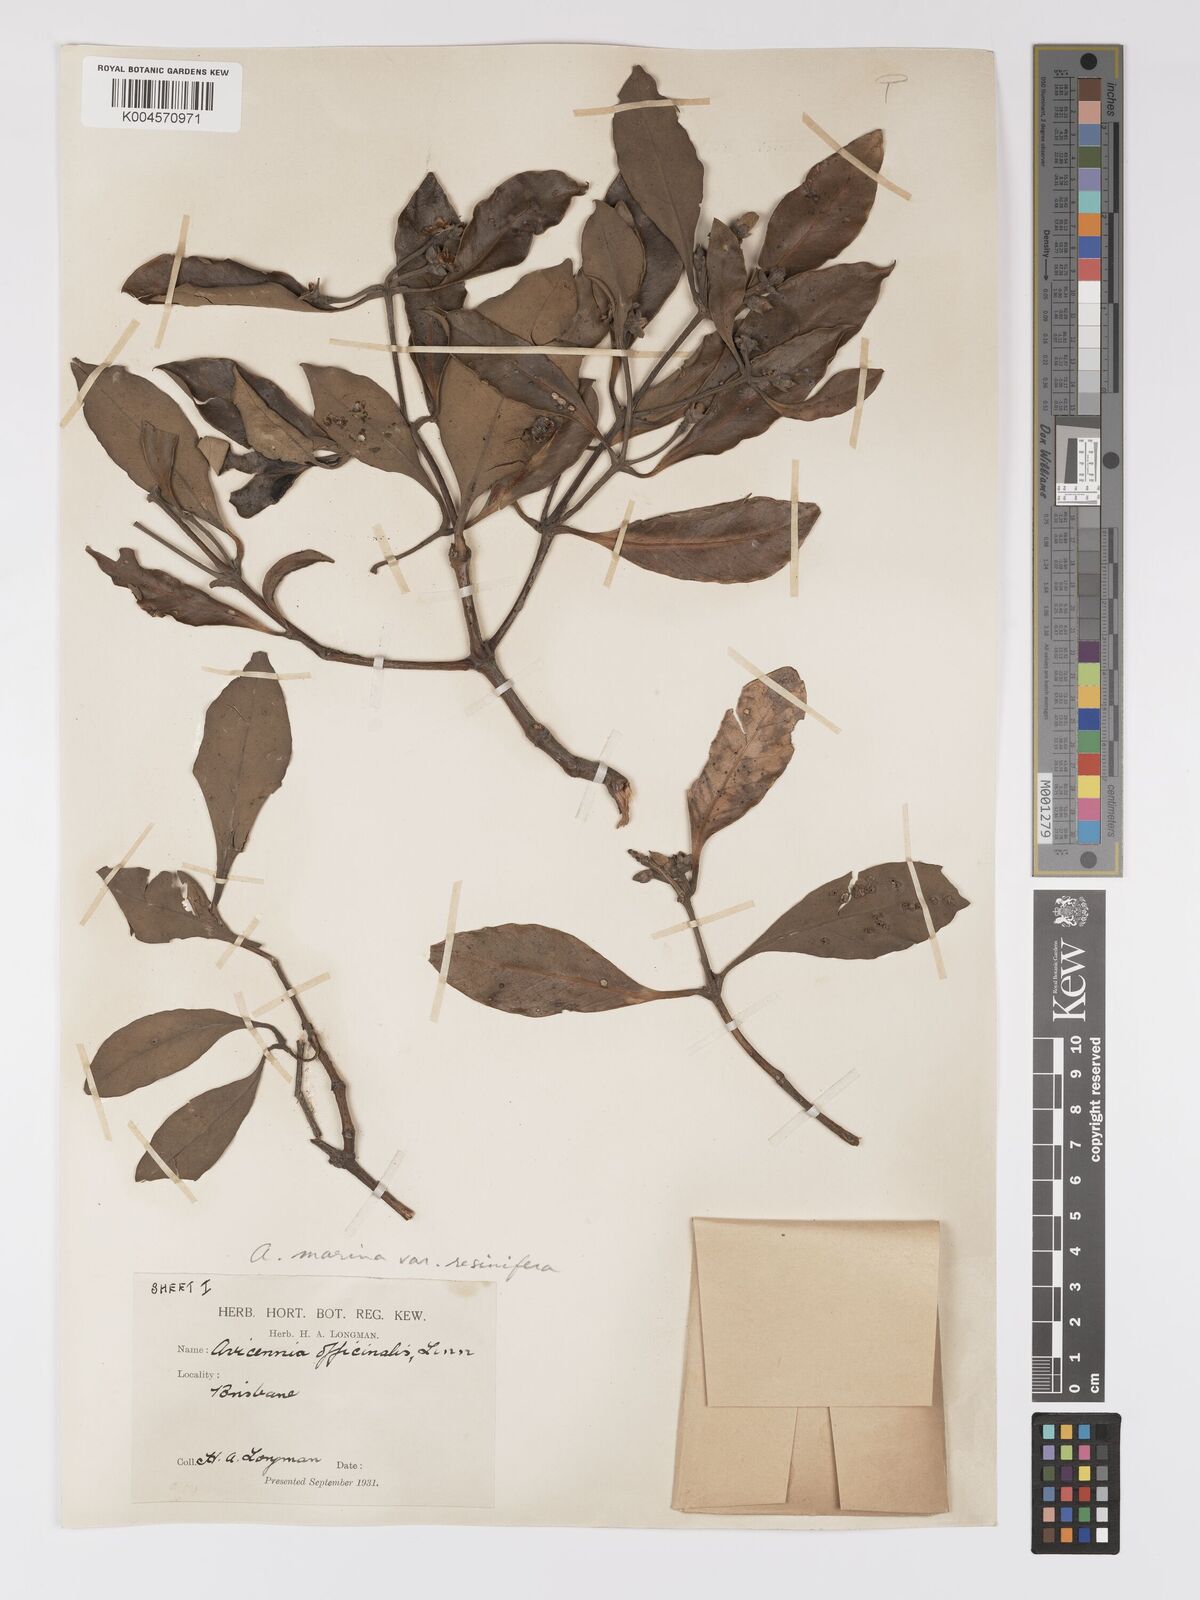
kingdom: Plantae
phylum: Tracheophyta
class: Magnoliopsida
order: Lamiales
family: Acanthaceae
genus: Avicennia
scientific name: Avicennia marina
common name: Gray mangrove
